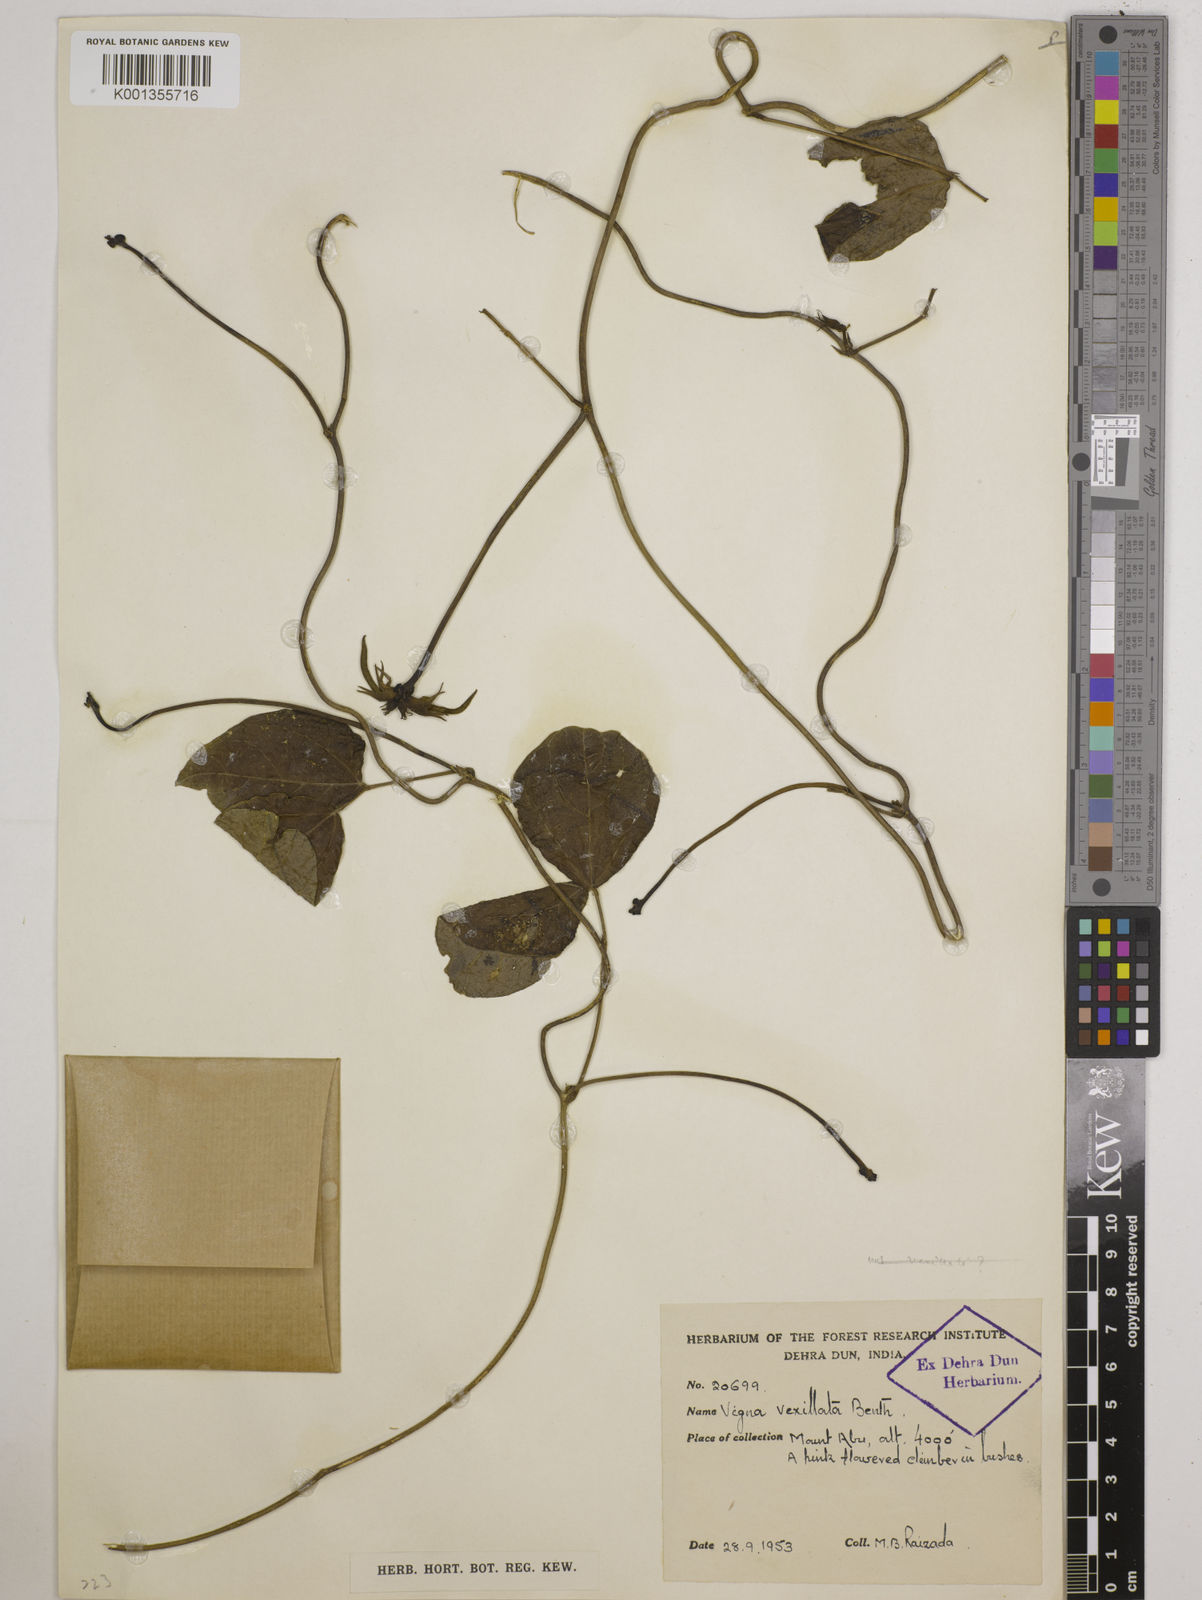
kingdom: Plantae
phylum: Tracheophyta
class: Magnoliopsida
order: Fabales
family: Fabaceae
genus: Vigna
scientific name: Vigna vexillata
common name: Zombi pea
